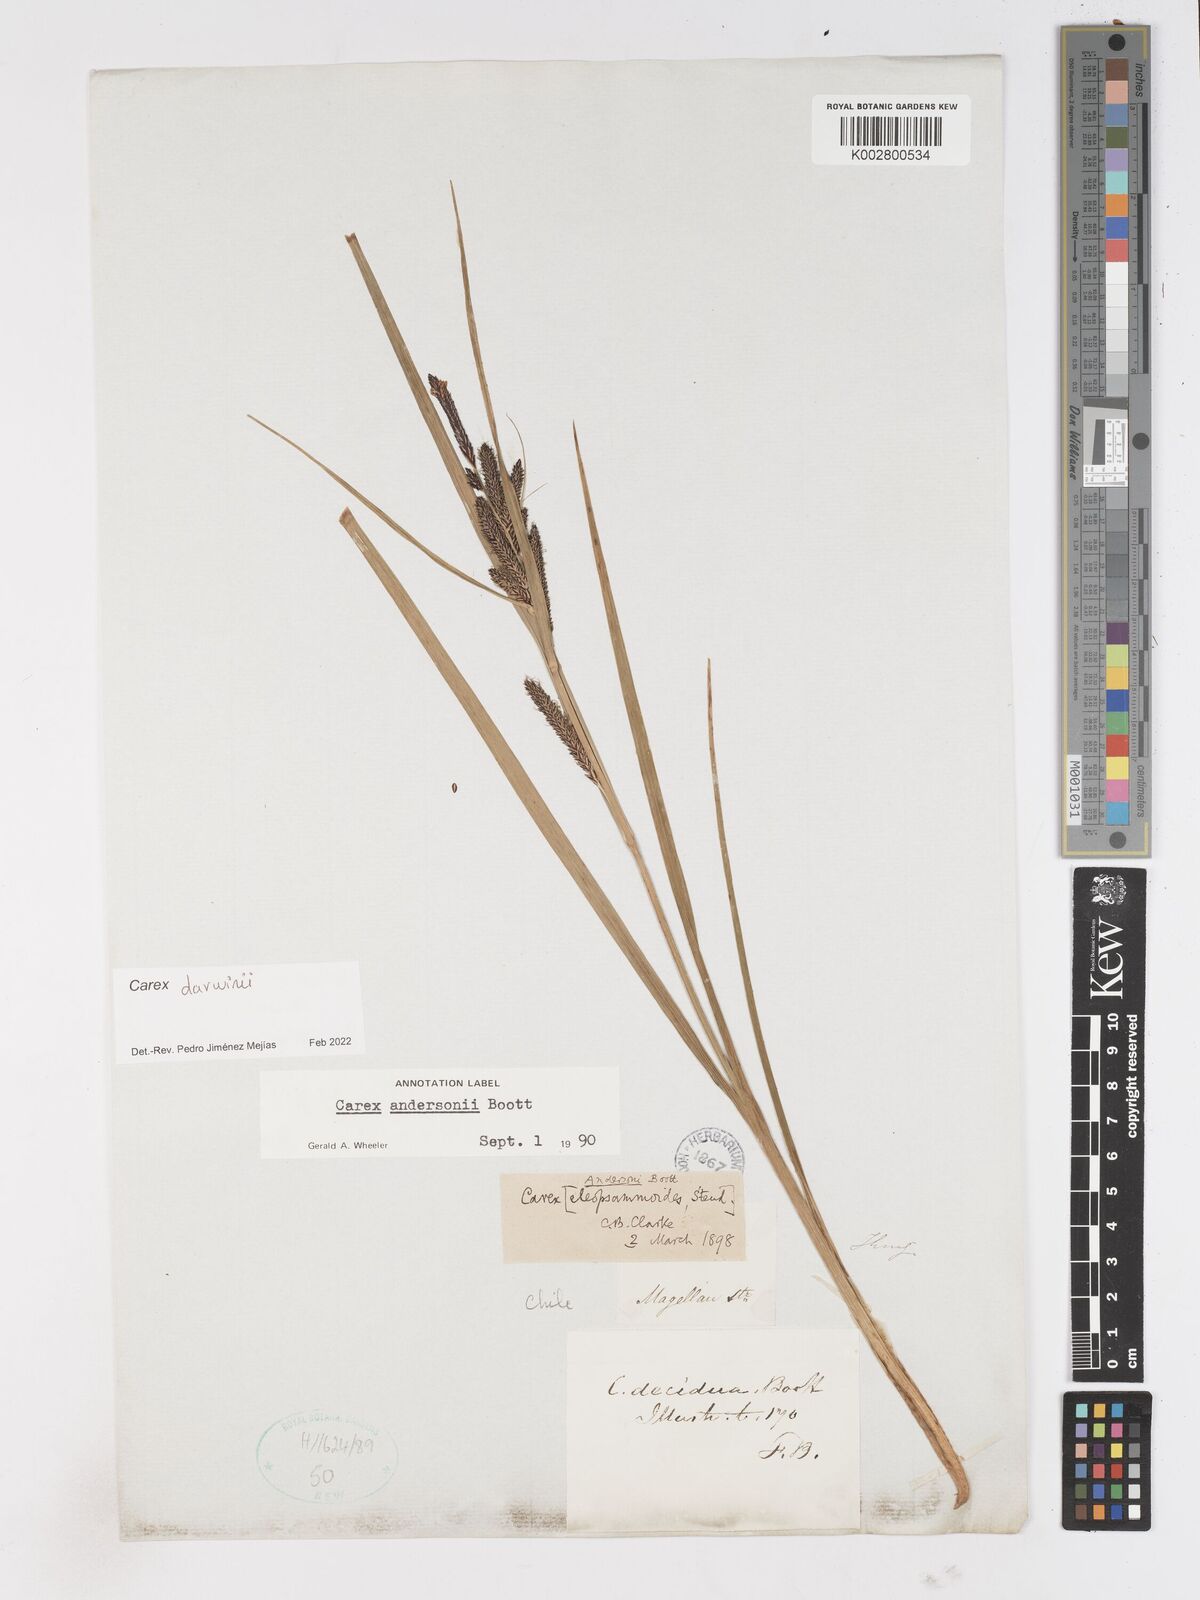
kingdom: Plantae
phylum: Tracheophyta
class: Liliopsida
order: Poales
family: Cyperaceae
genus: Carex
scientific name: Carex darwinii
